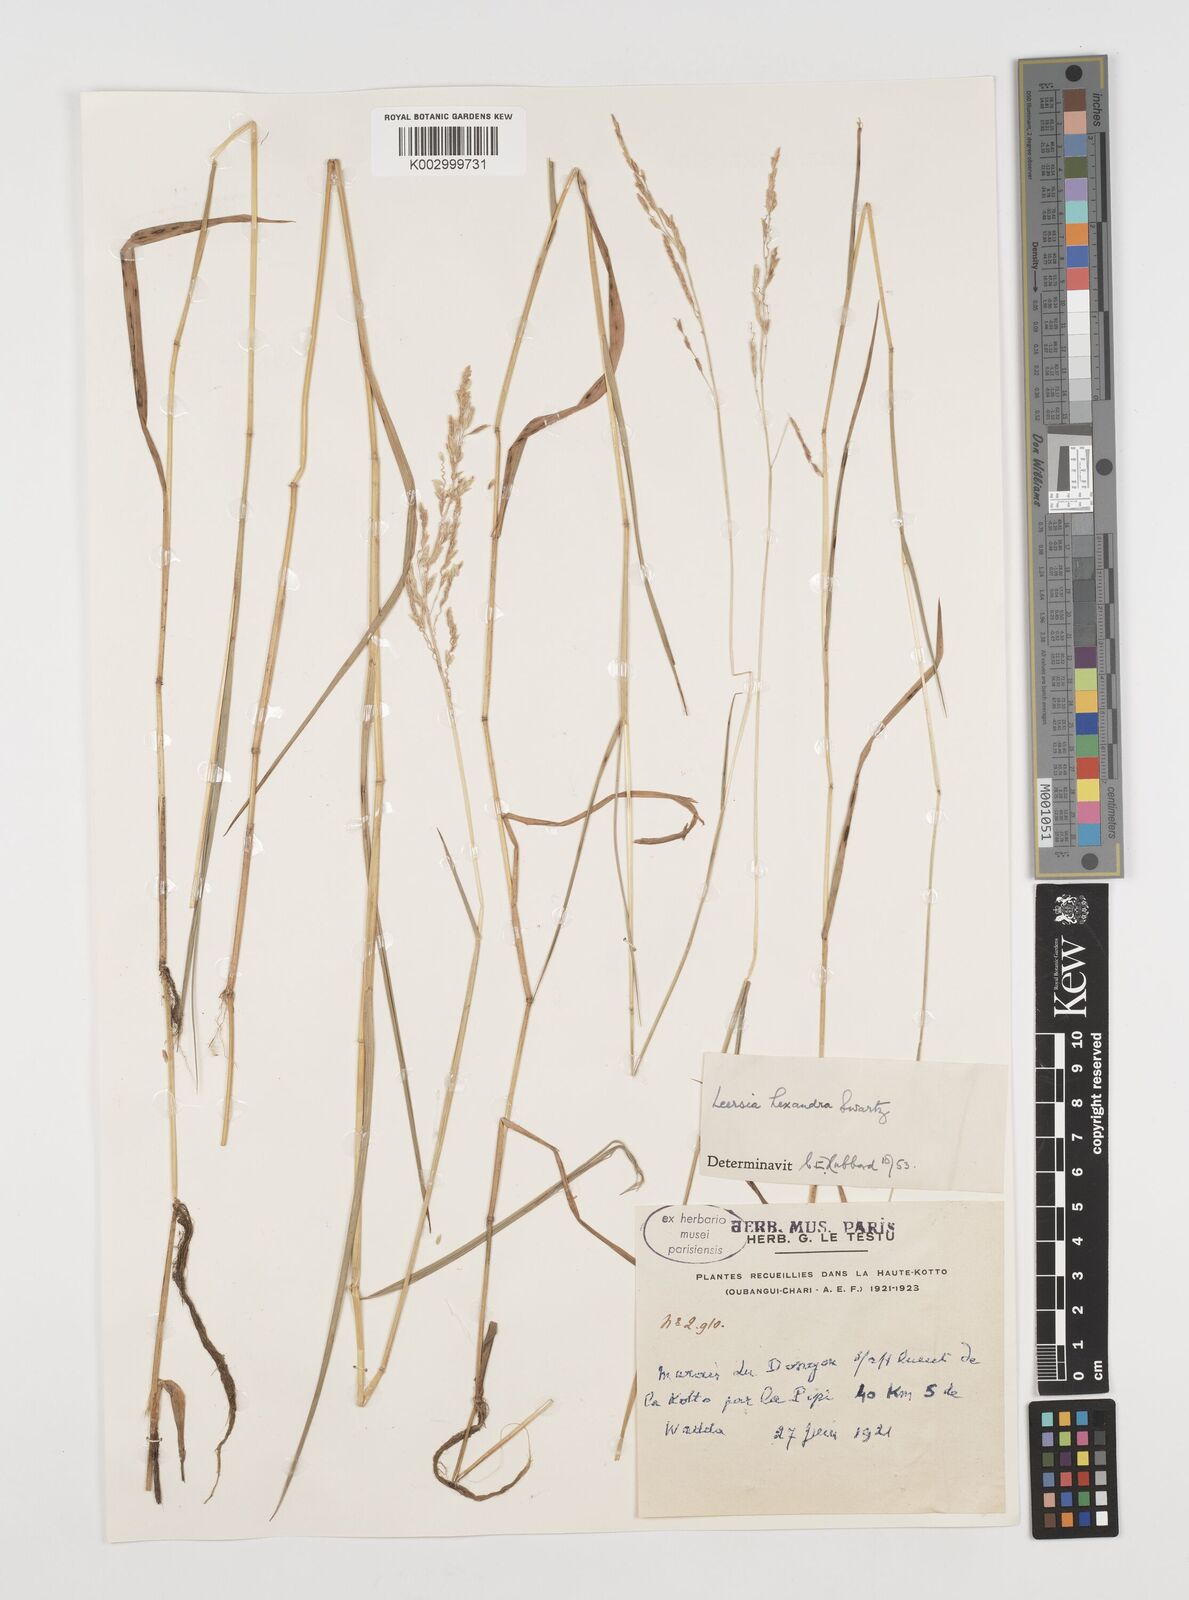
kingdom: Plantae
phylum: Tracheophyta
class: Liliopsida
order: Poales
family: Poaceae
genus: Leersia
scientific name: Leersia hexandra
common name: Southern cut grass
